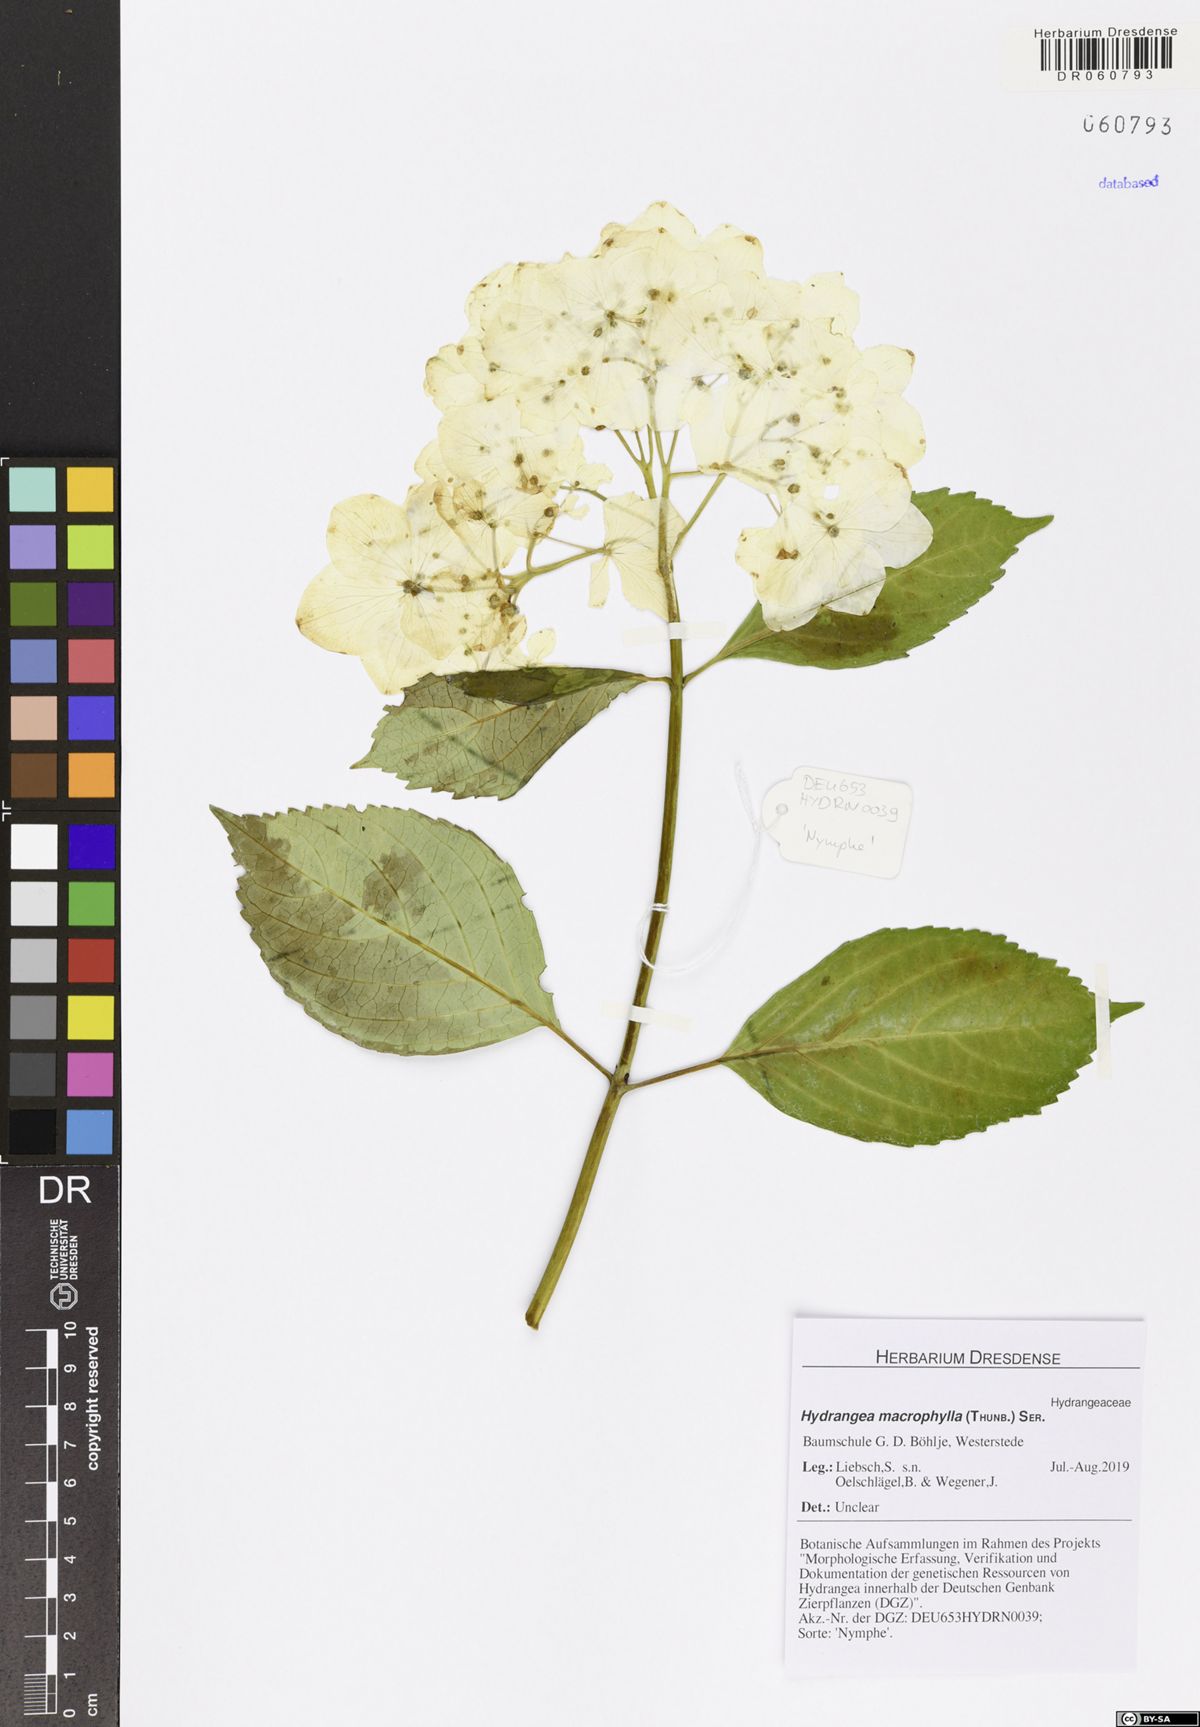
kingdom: Plantae
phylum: Tracheophyta
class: Magnoliopsida
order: Cornales
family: Hydrangeaceae
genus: Hydrangea
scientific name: Hydrangea macrophylla
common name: Hydrangea
